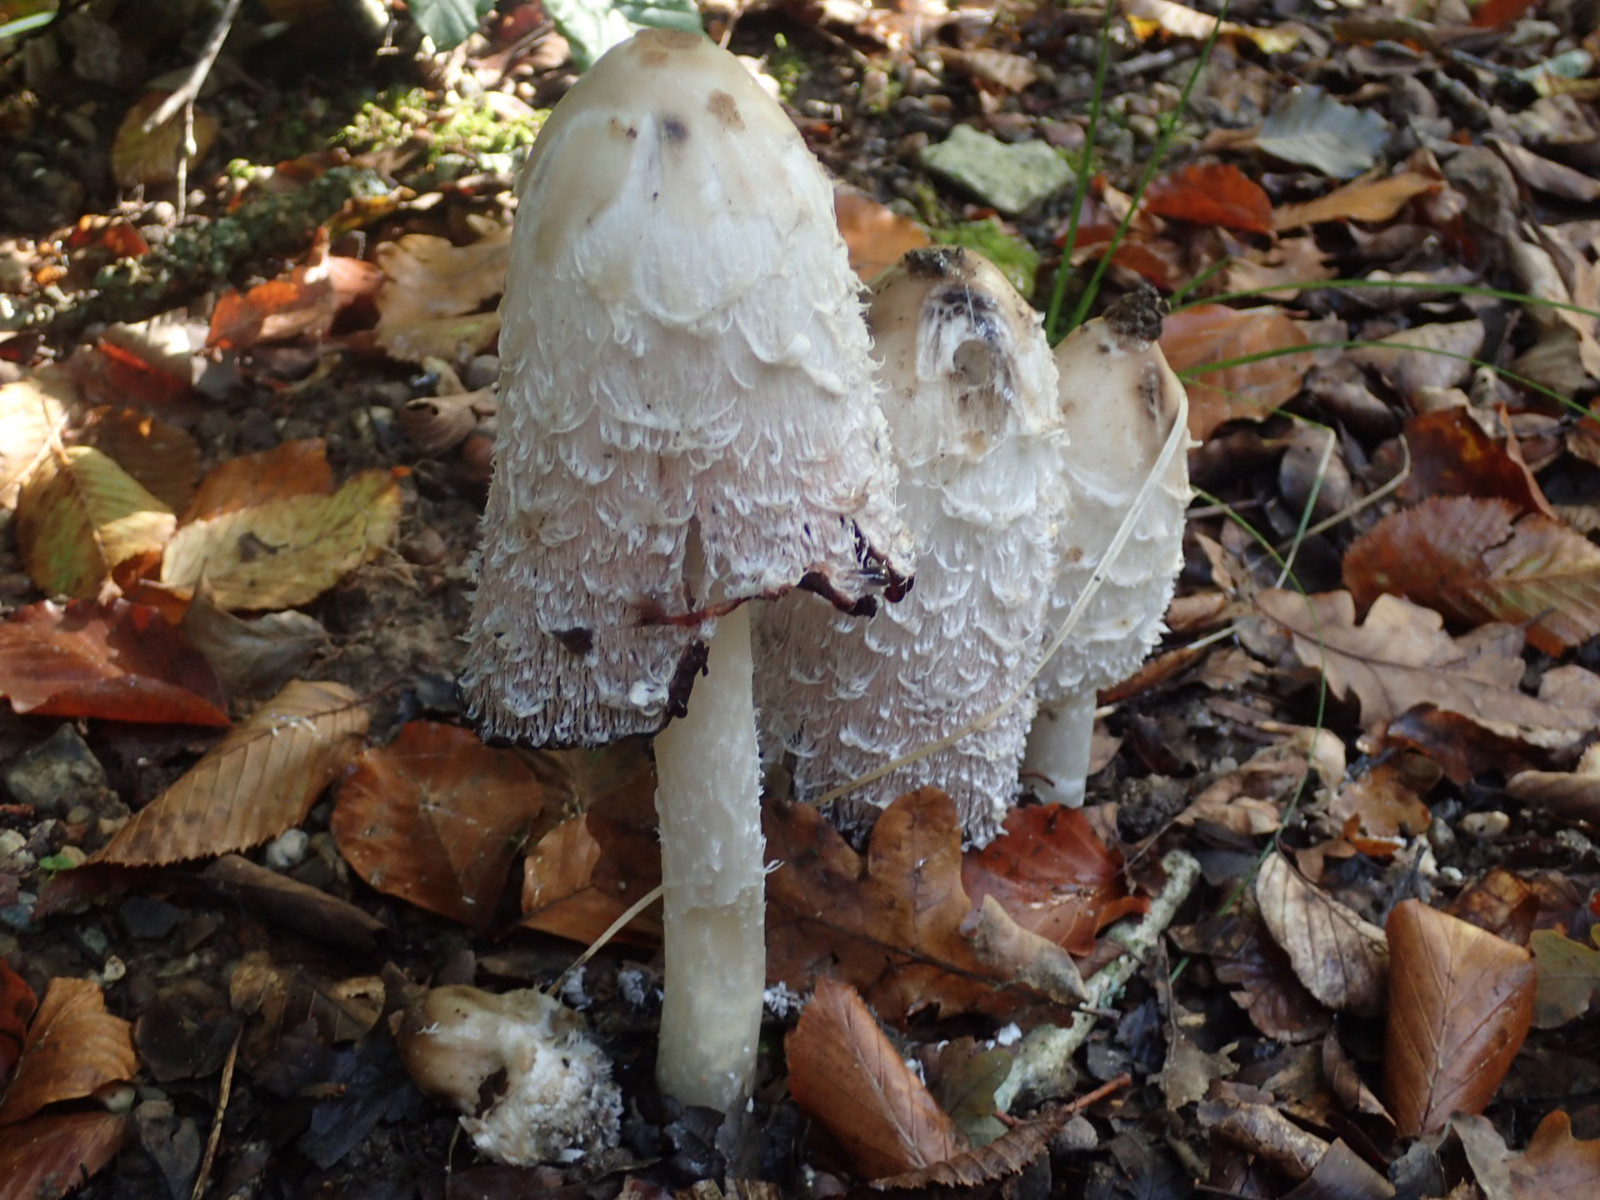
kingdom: Fungi
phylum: Basidiomycota
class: Agaricomycetes
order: Agaricales
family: Agaricaceae
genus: Coprinus
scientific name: Coprinus comatus
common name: stor parykhat
